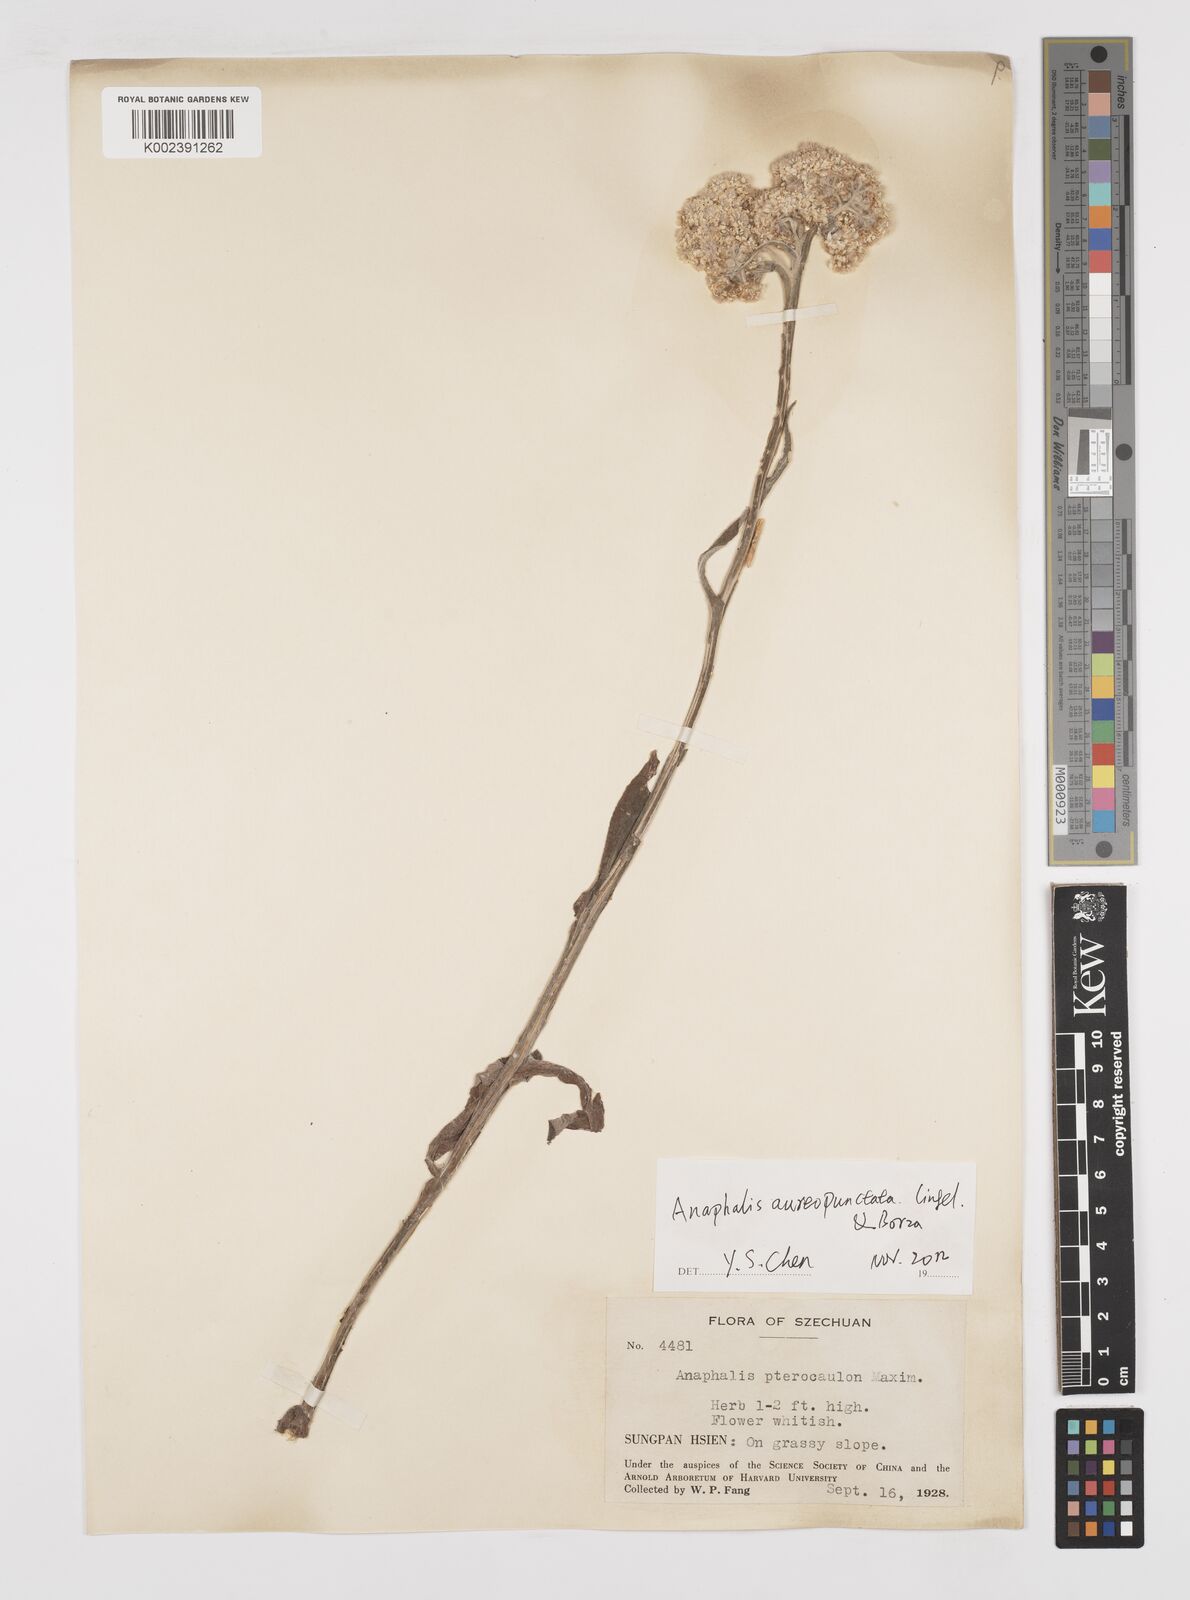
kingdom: Plantae
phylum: Tracheophyta
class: Magnoliopsida
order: Asterales
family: Asteraceae
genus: Anaphalis
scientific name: Anaphalis sinica
